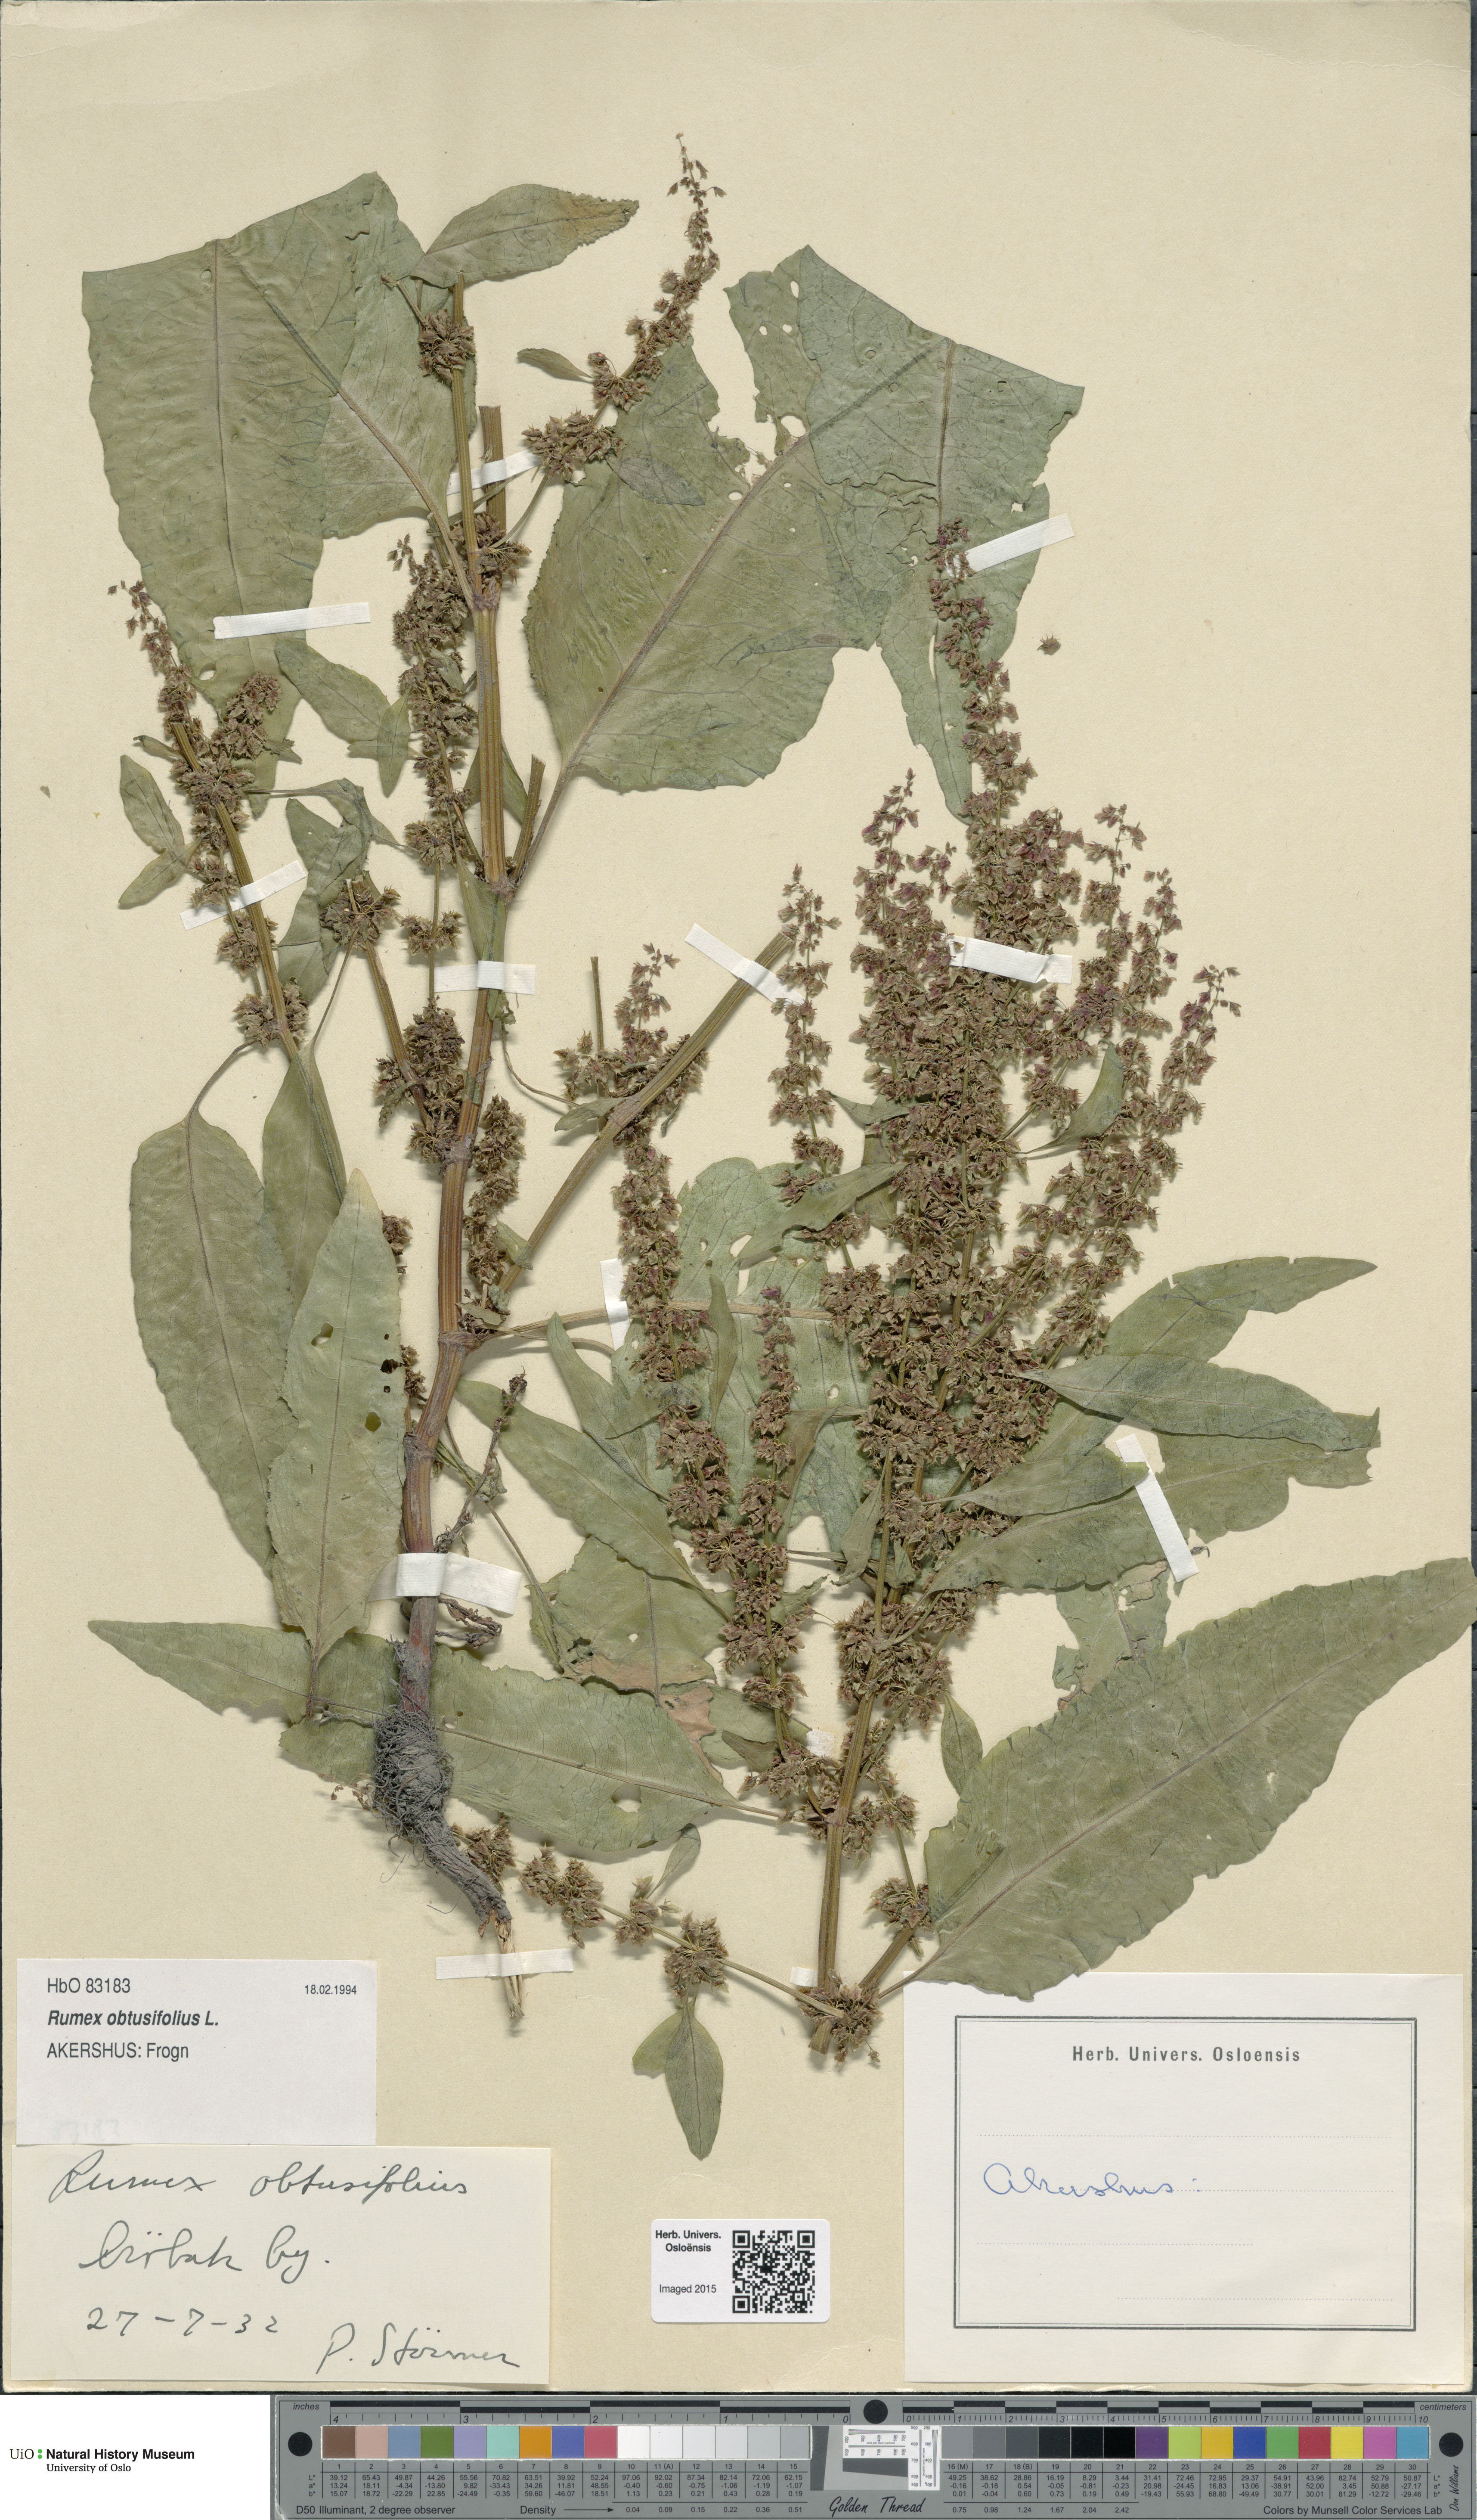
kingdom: Plantae
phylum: Tracheophyta
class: Magnoliopsida
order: Caryophyllales
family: Polygonaceae
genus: Rumex
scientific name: Rumex obtusifolius
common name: Bitter dock
